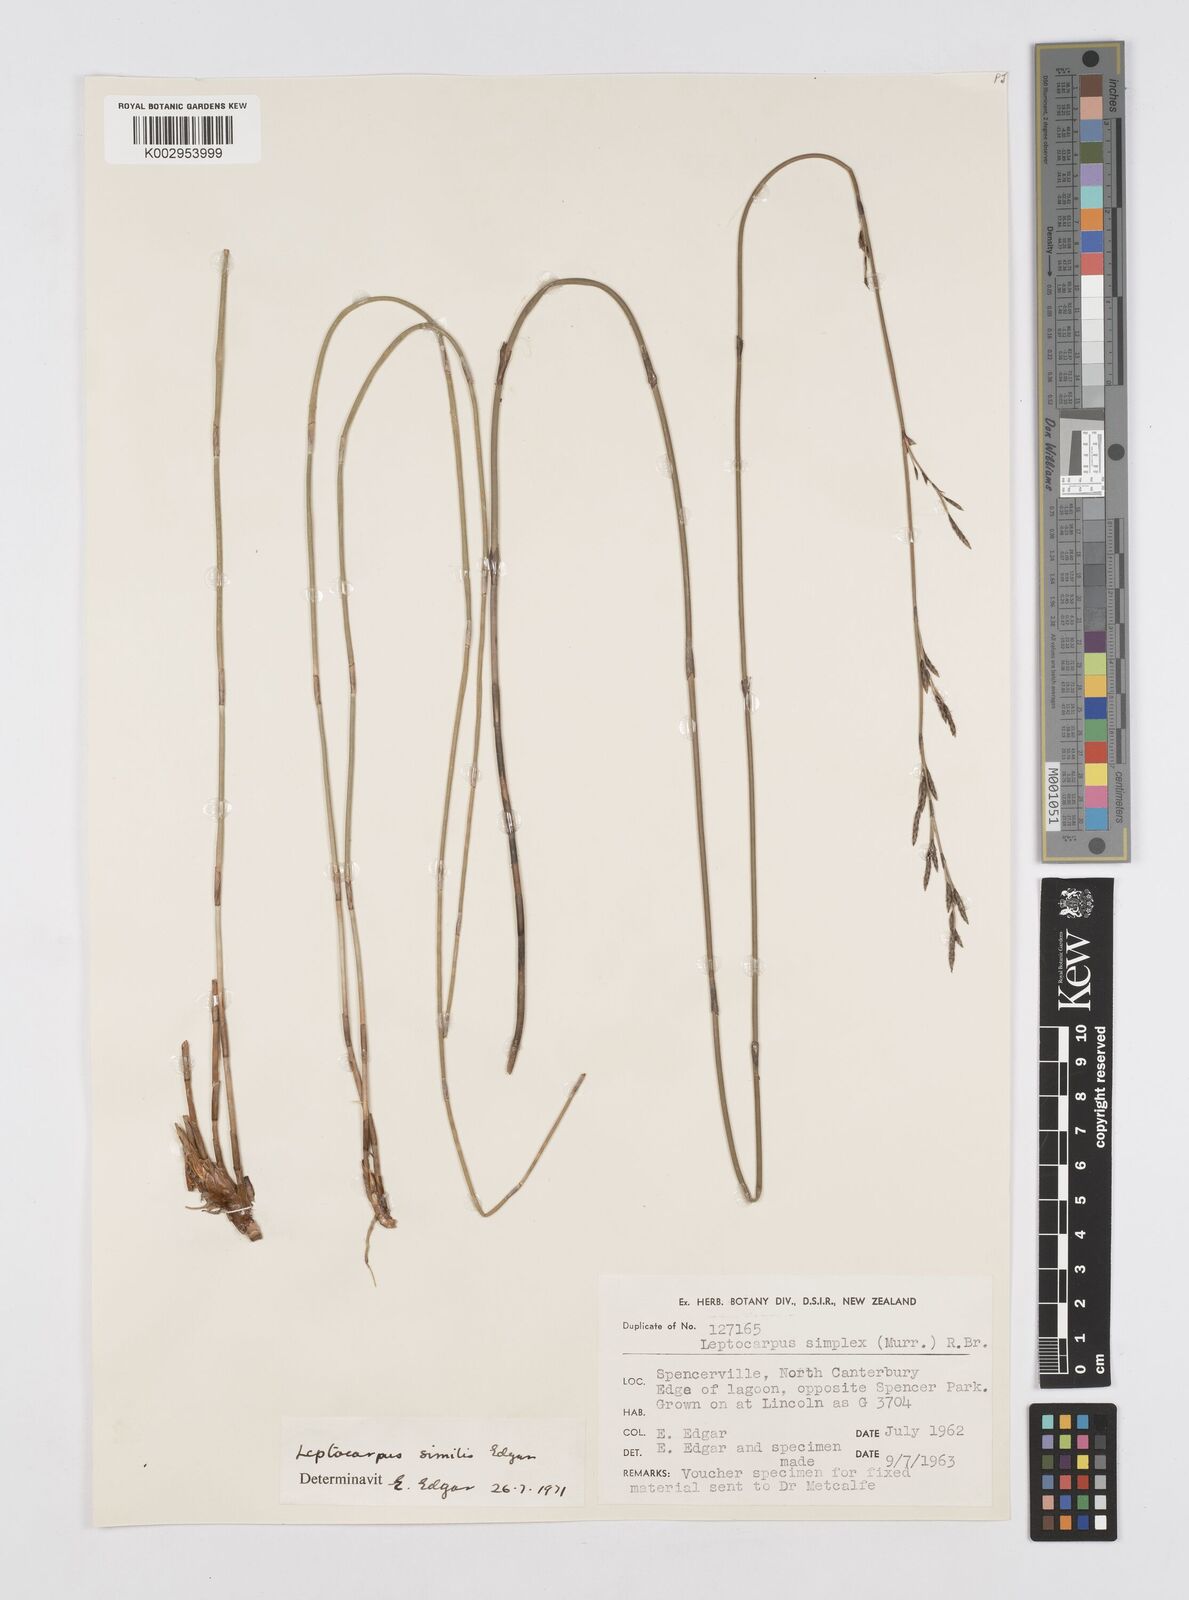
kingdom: Plantae
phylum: Tracheophyta
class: Liliopsida
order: Poales
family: Restionaceae
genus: Apodasmia
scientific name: Apodasmia similis
